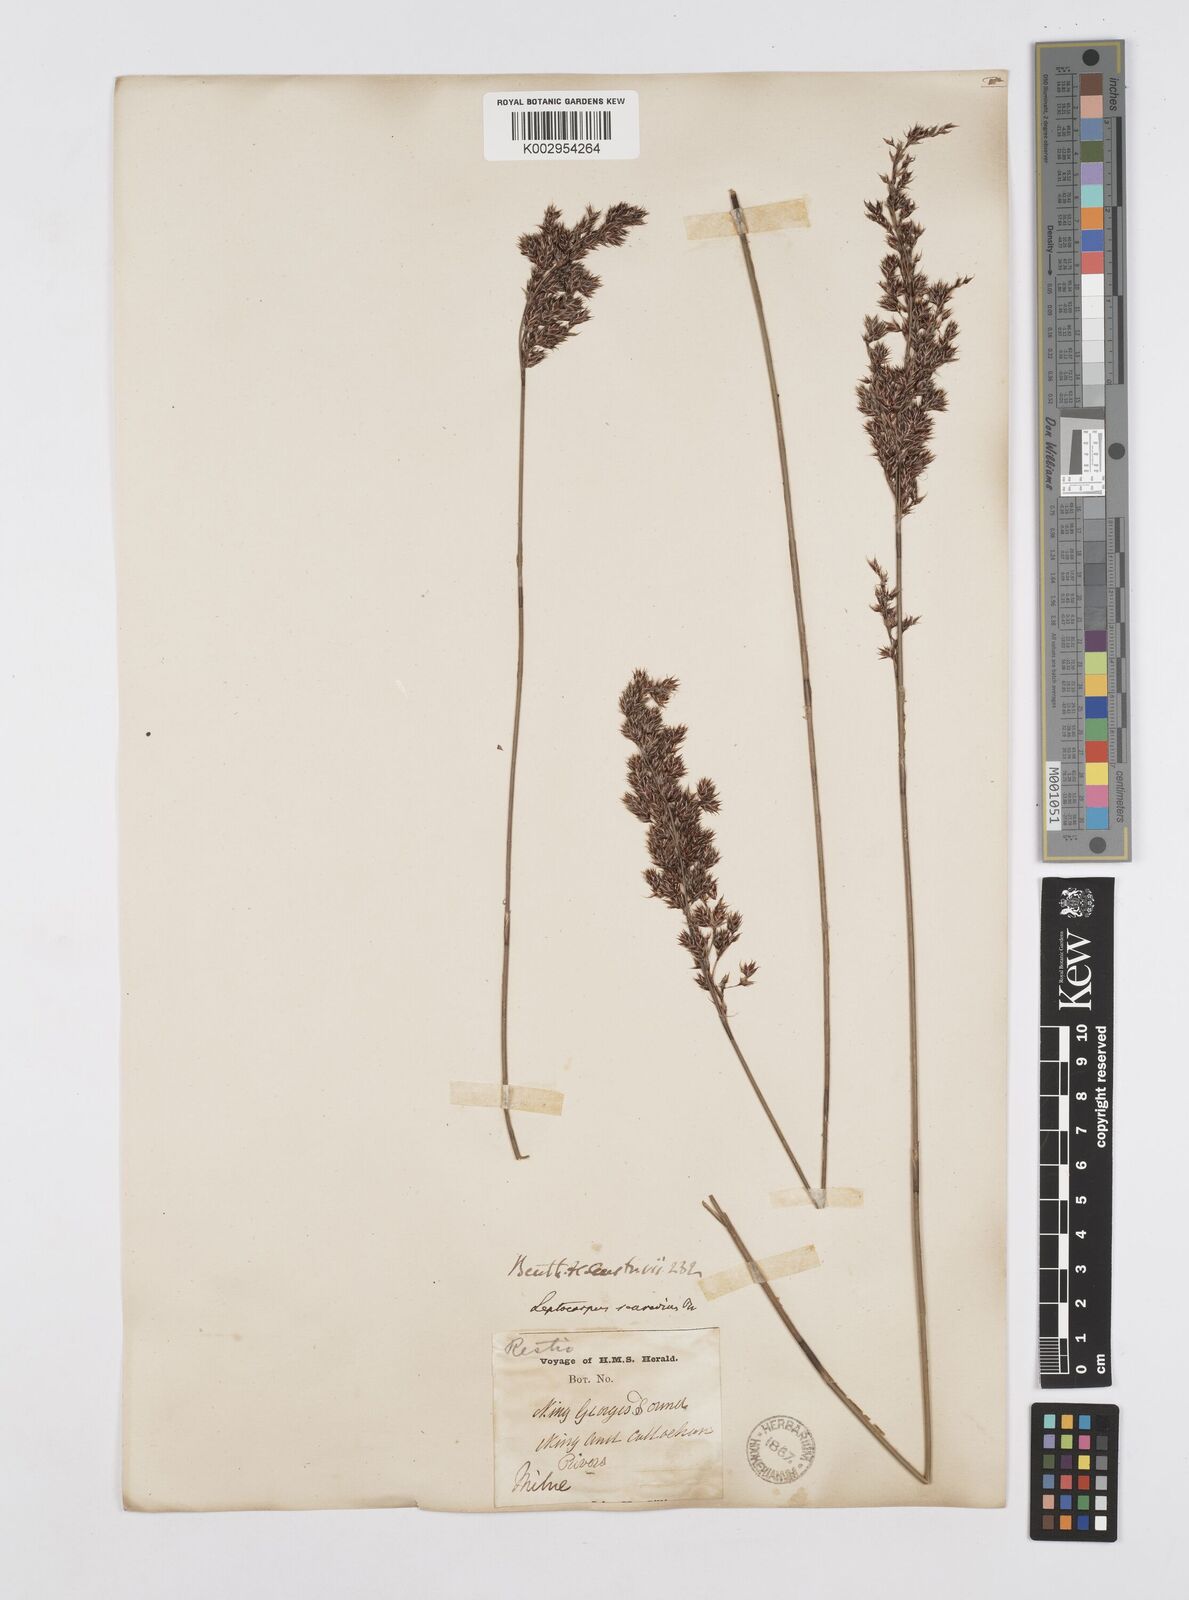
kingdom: Plantae
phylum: Tracheophyta
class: Liliopsida
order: Poales
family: Restionaceae
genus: Leptocarpus
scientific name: Leptocarpus scariosus
